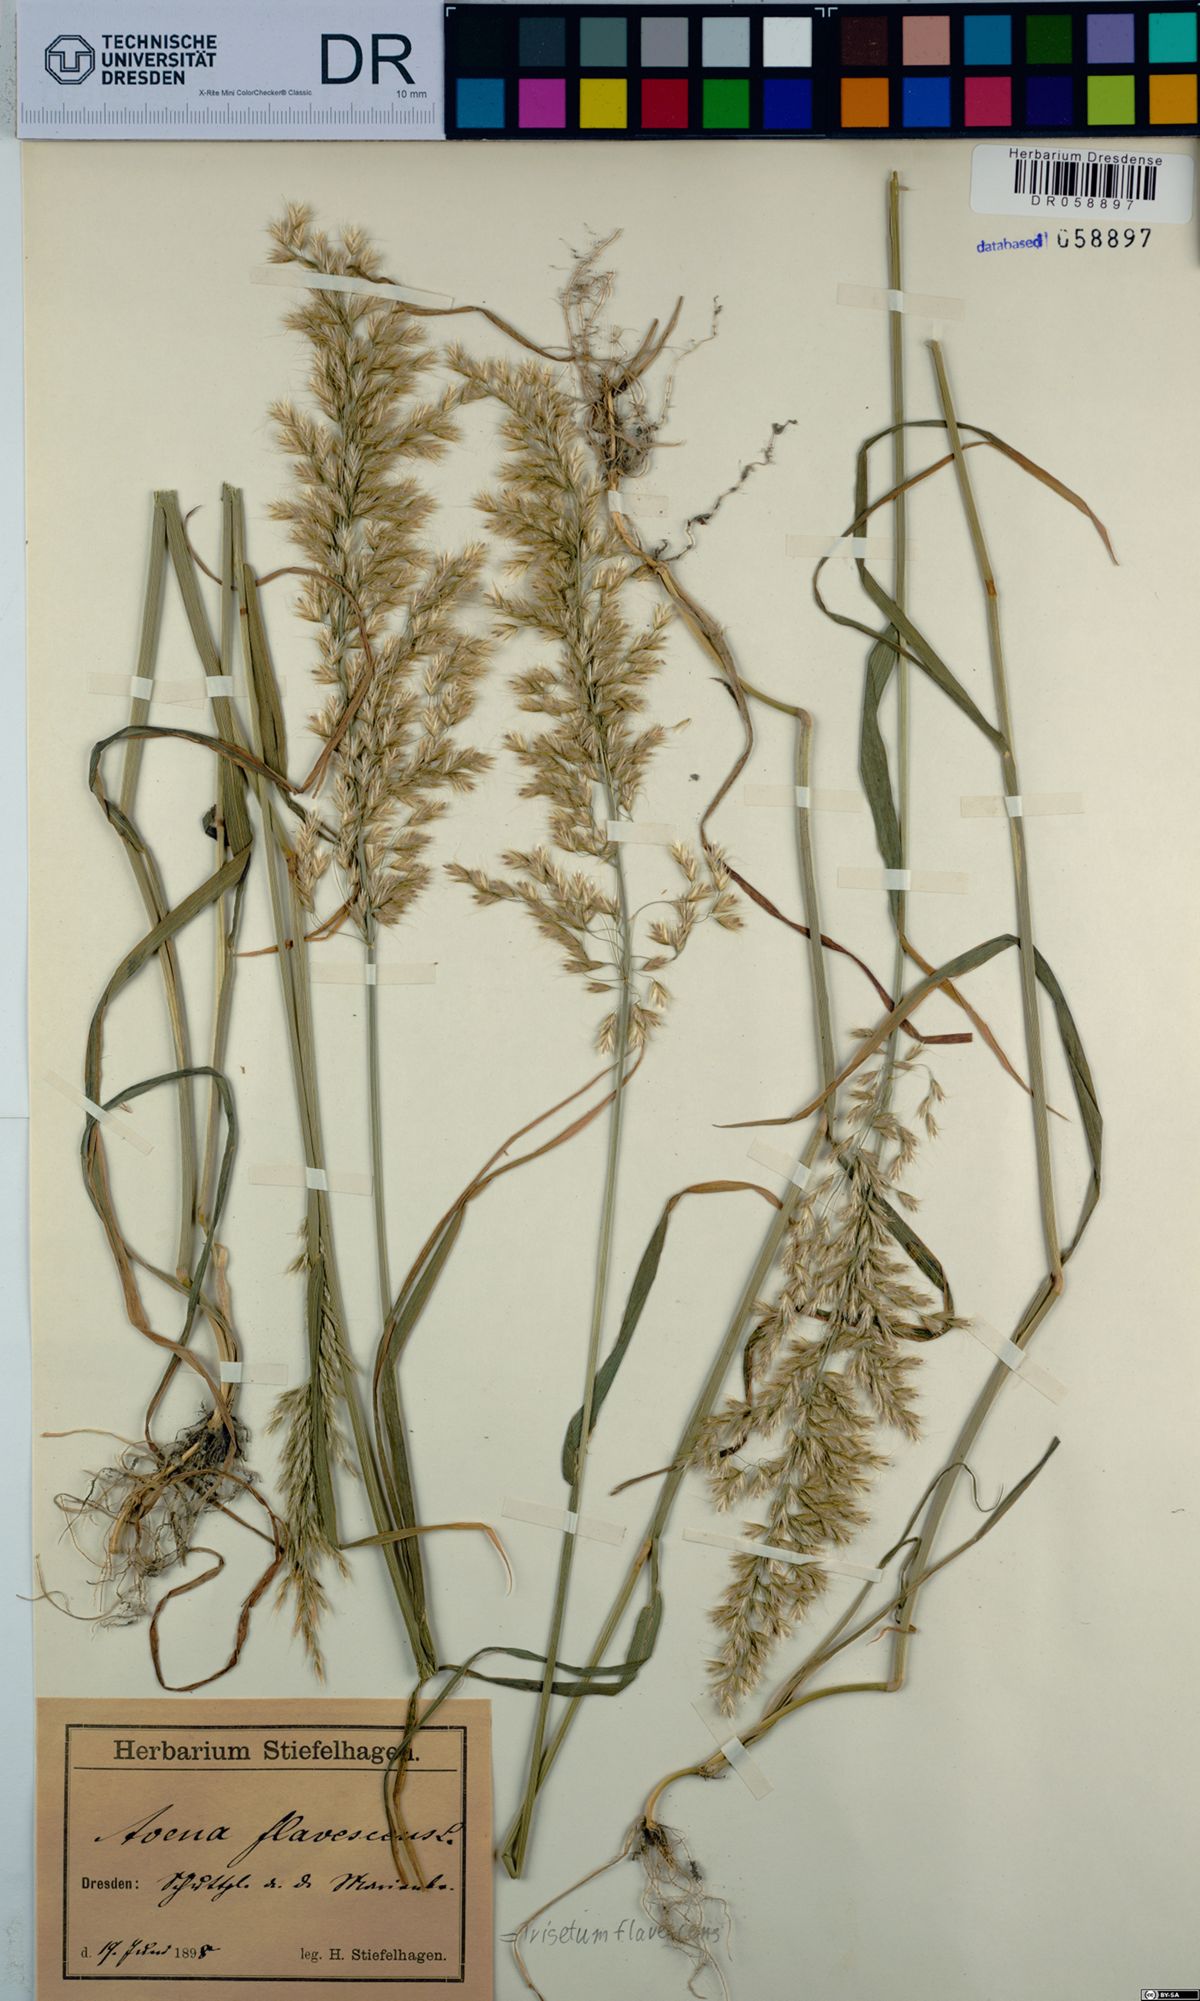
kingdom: Plantae
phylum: Tracheophyta
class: Liliopsida
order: Poales
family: Poaceae
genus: Trisetum
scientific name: Trisetum flavescens
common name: Yellow oat-grass
